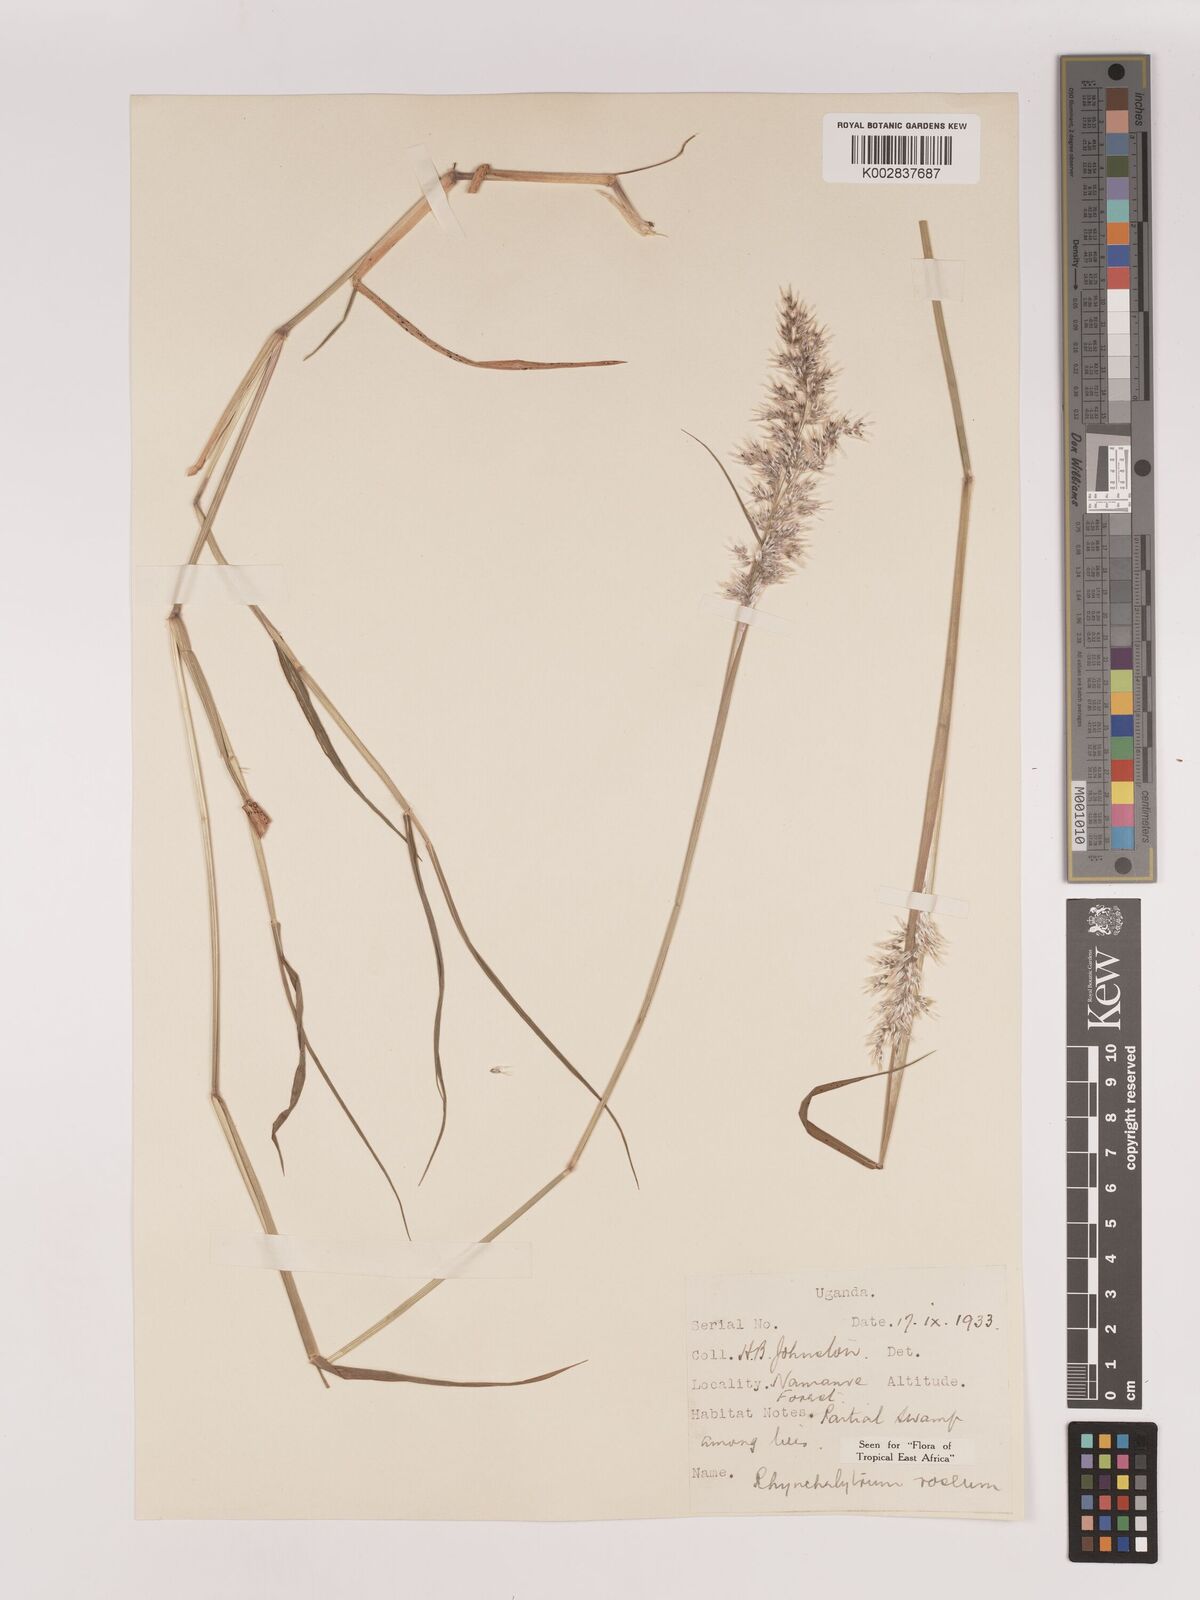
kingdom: Plantae
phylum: Tracheophyta
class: Liliopsida
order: Poales
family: Poaceae
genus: Melinis
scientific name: Melinis repens
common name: Rose natal grass
